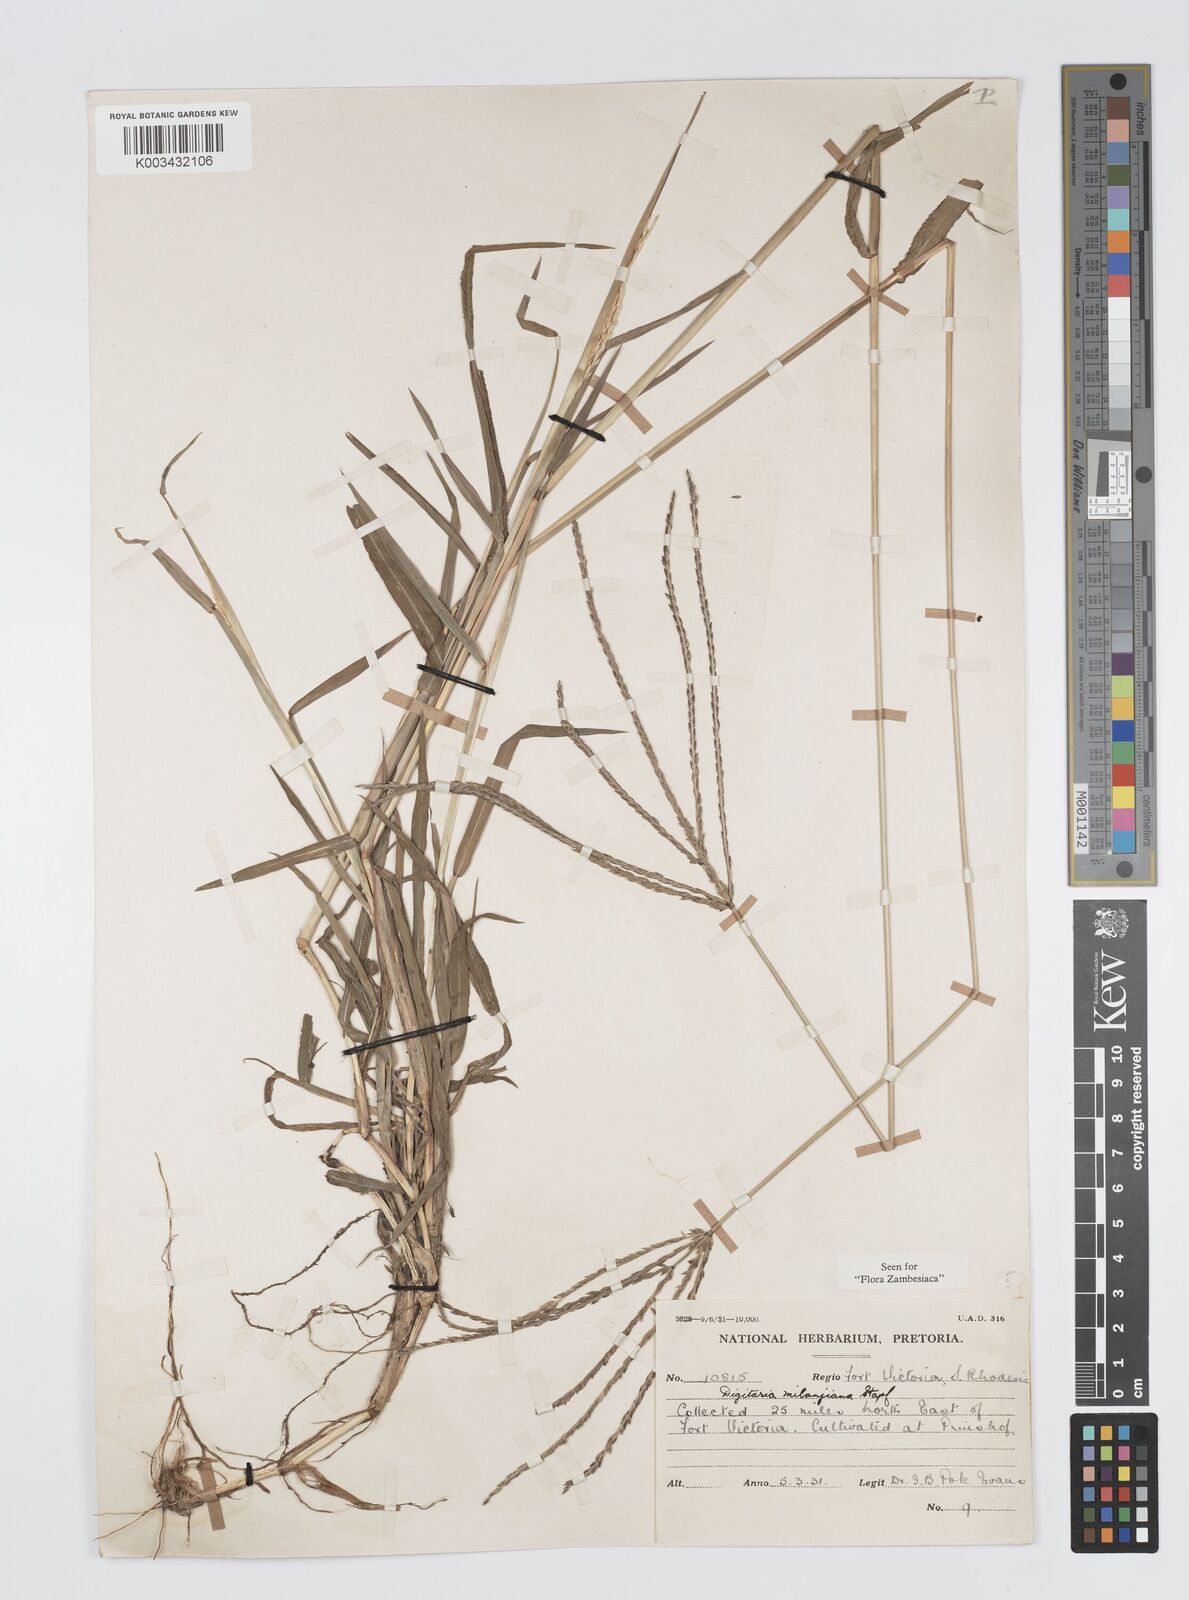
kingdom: Plantae
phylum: Tracheophyta
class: Liliopsida
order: Poales
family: Poaceae
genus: Digitaria
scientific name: Digitaria milanjiana
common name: Madagascar crabgrass
